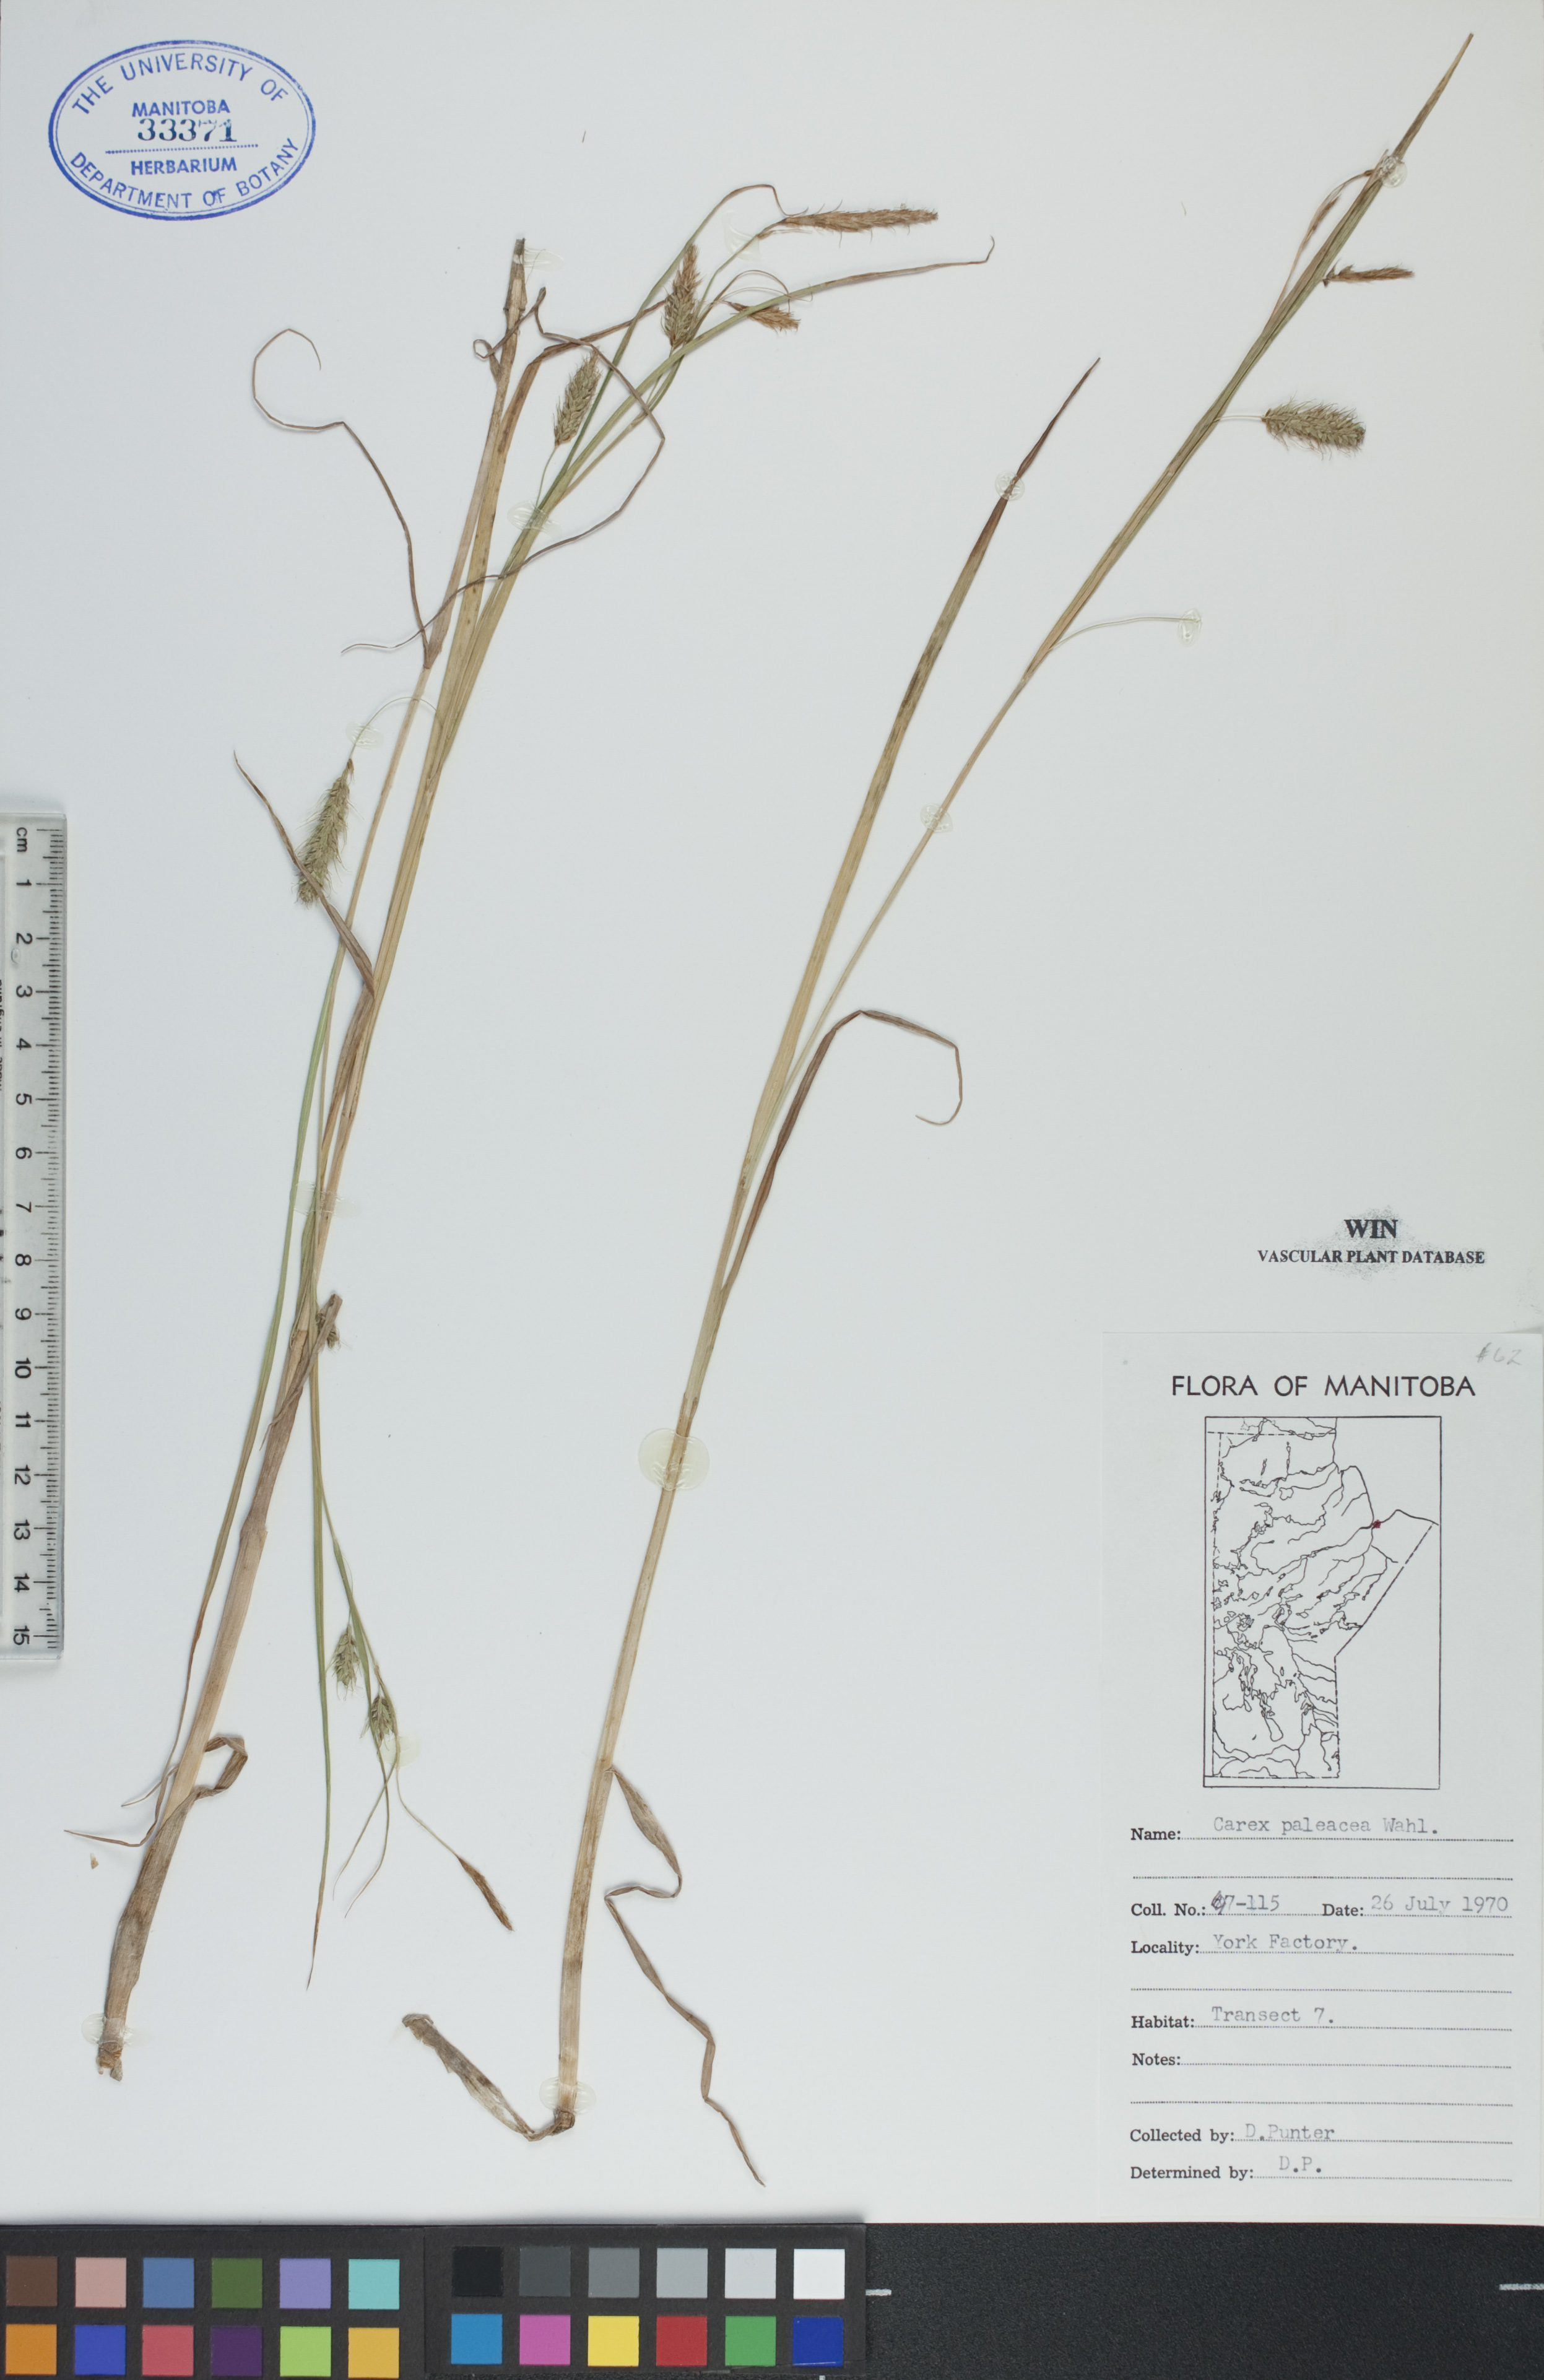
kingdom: Plantae
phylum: Tracheophyta
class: Liliopsida
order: Poales
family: Cyperaceae
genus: Carex
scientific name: Carex paleacea
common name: Chaffy sedge
